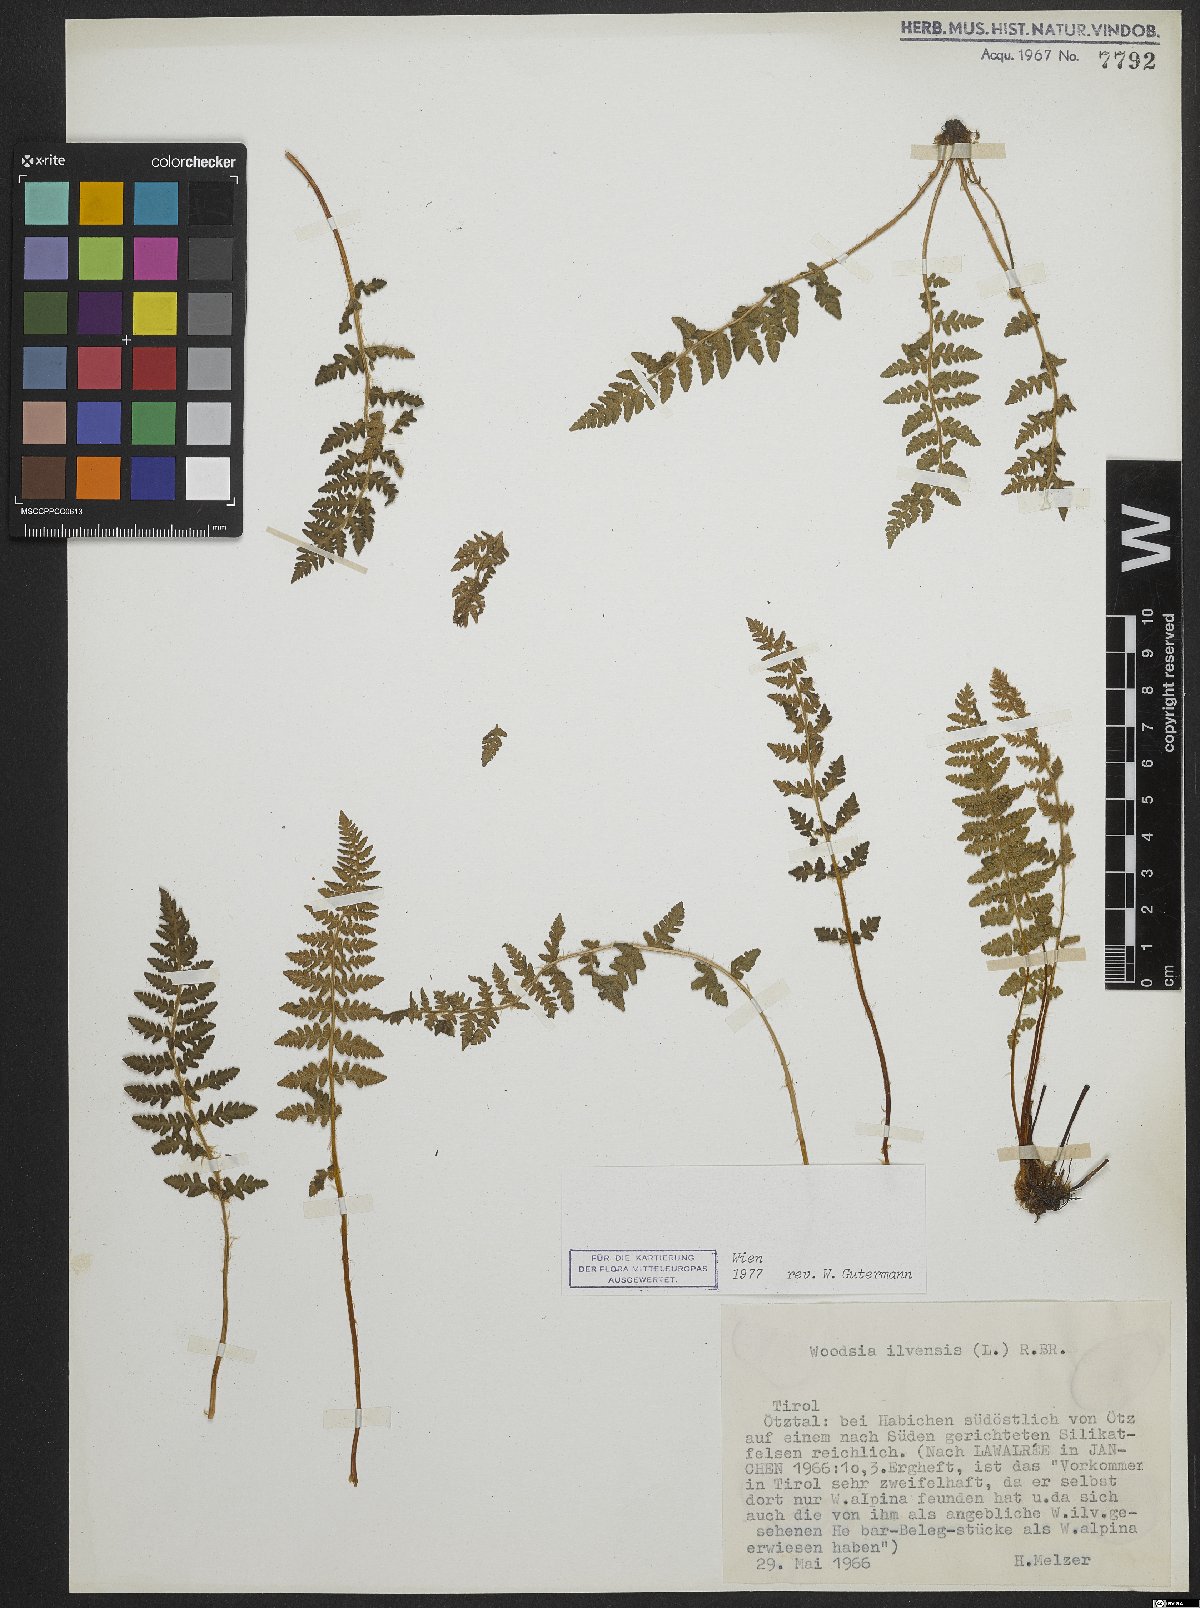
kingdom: Plantae
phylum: Tracheophyta
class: Polypodiopsida
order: Polypodiales
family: Woodsiaceae
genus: Woodsia
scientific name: Woodsia ilvensis
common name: Fragrant woodsia
